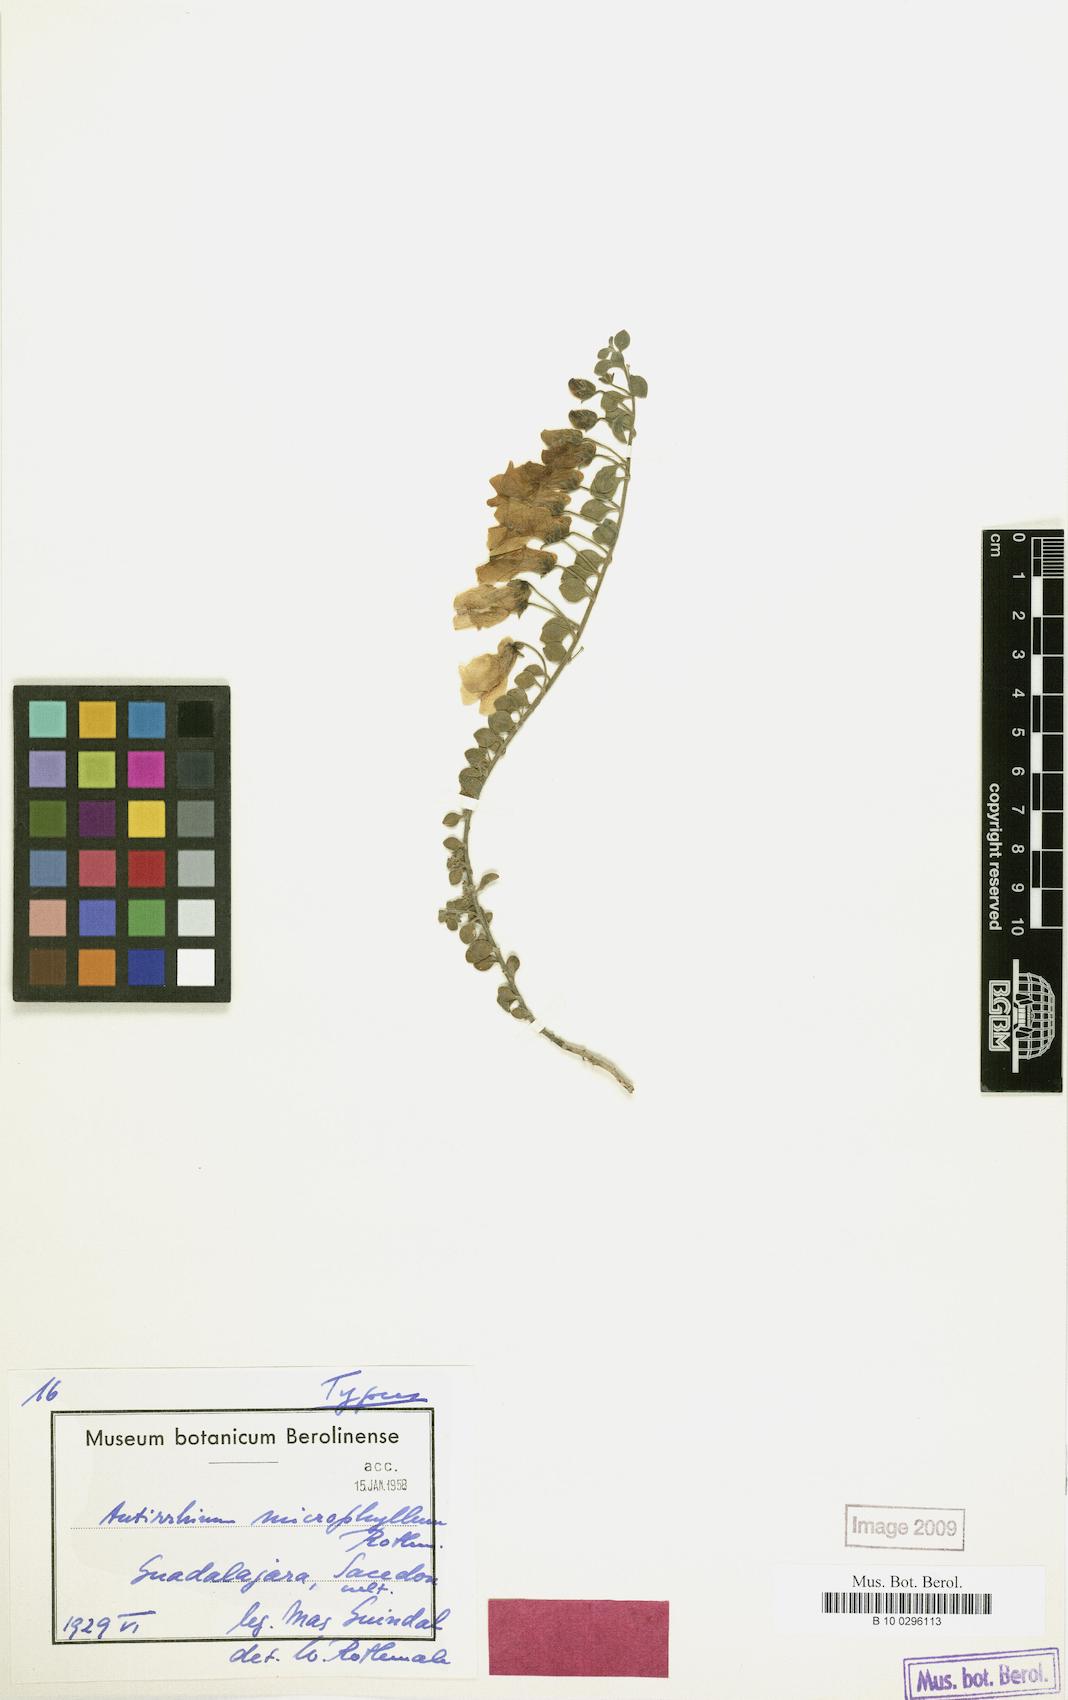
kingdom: Plantae
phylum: Tracheophyta
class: Magnoliopsida
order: Lamiales
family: Plantaginaceae
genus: Antirrhinum
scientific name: Antirrhinum microphyllum
